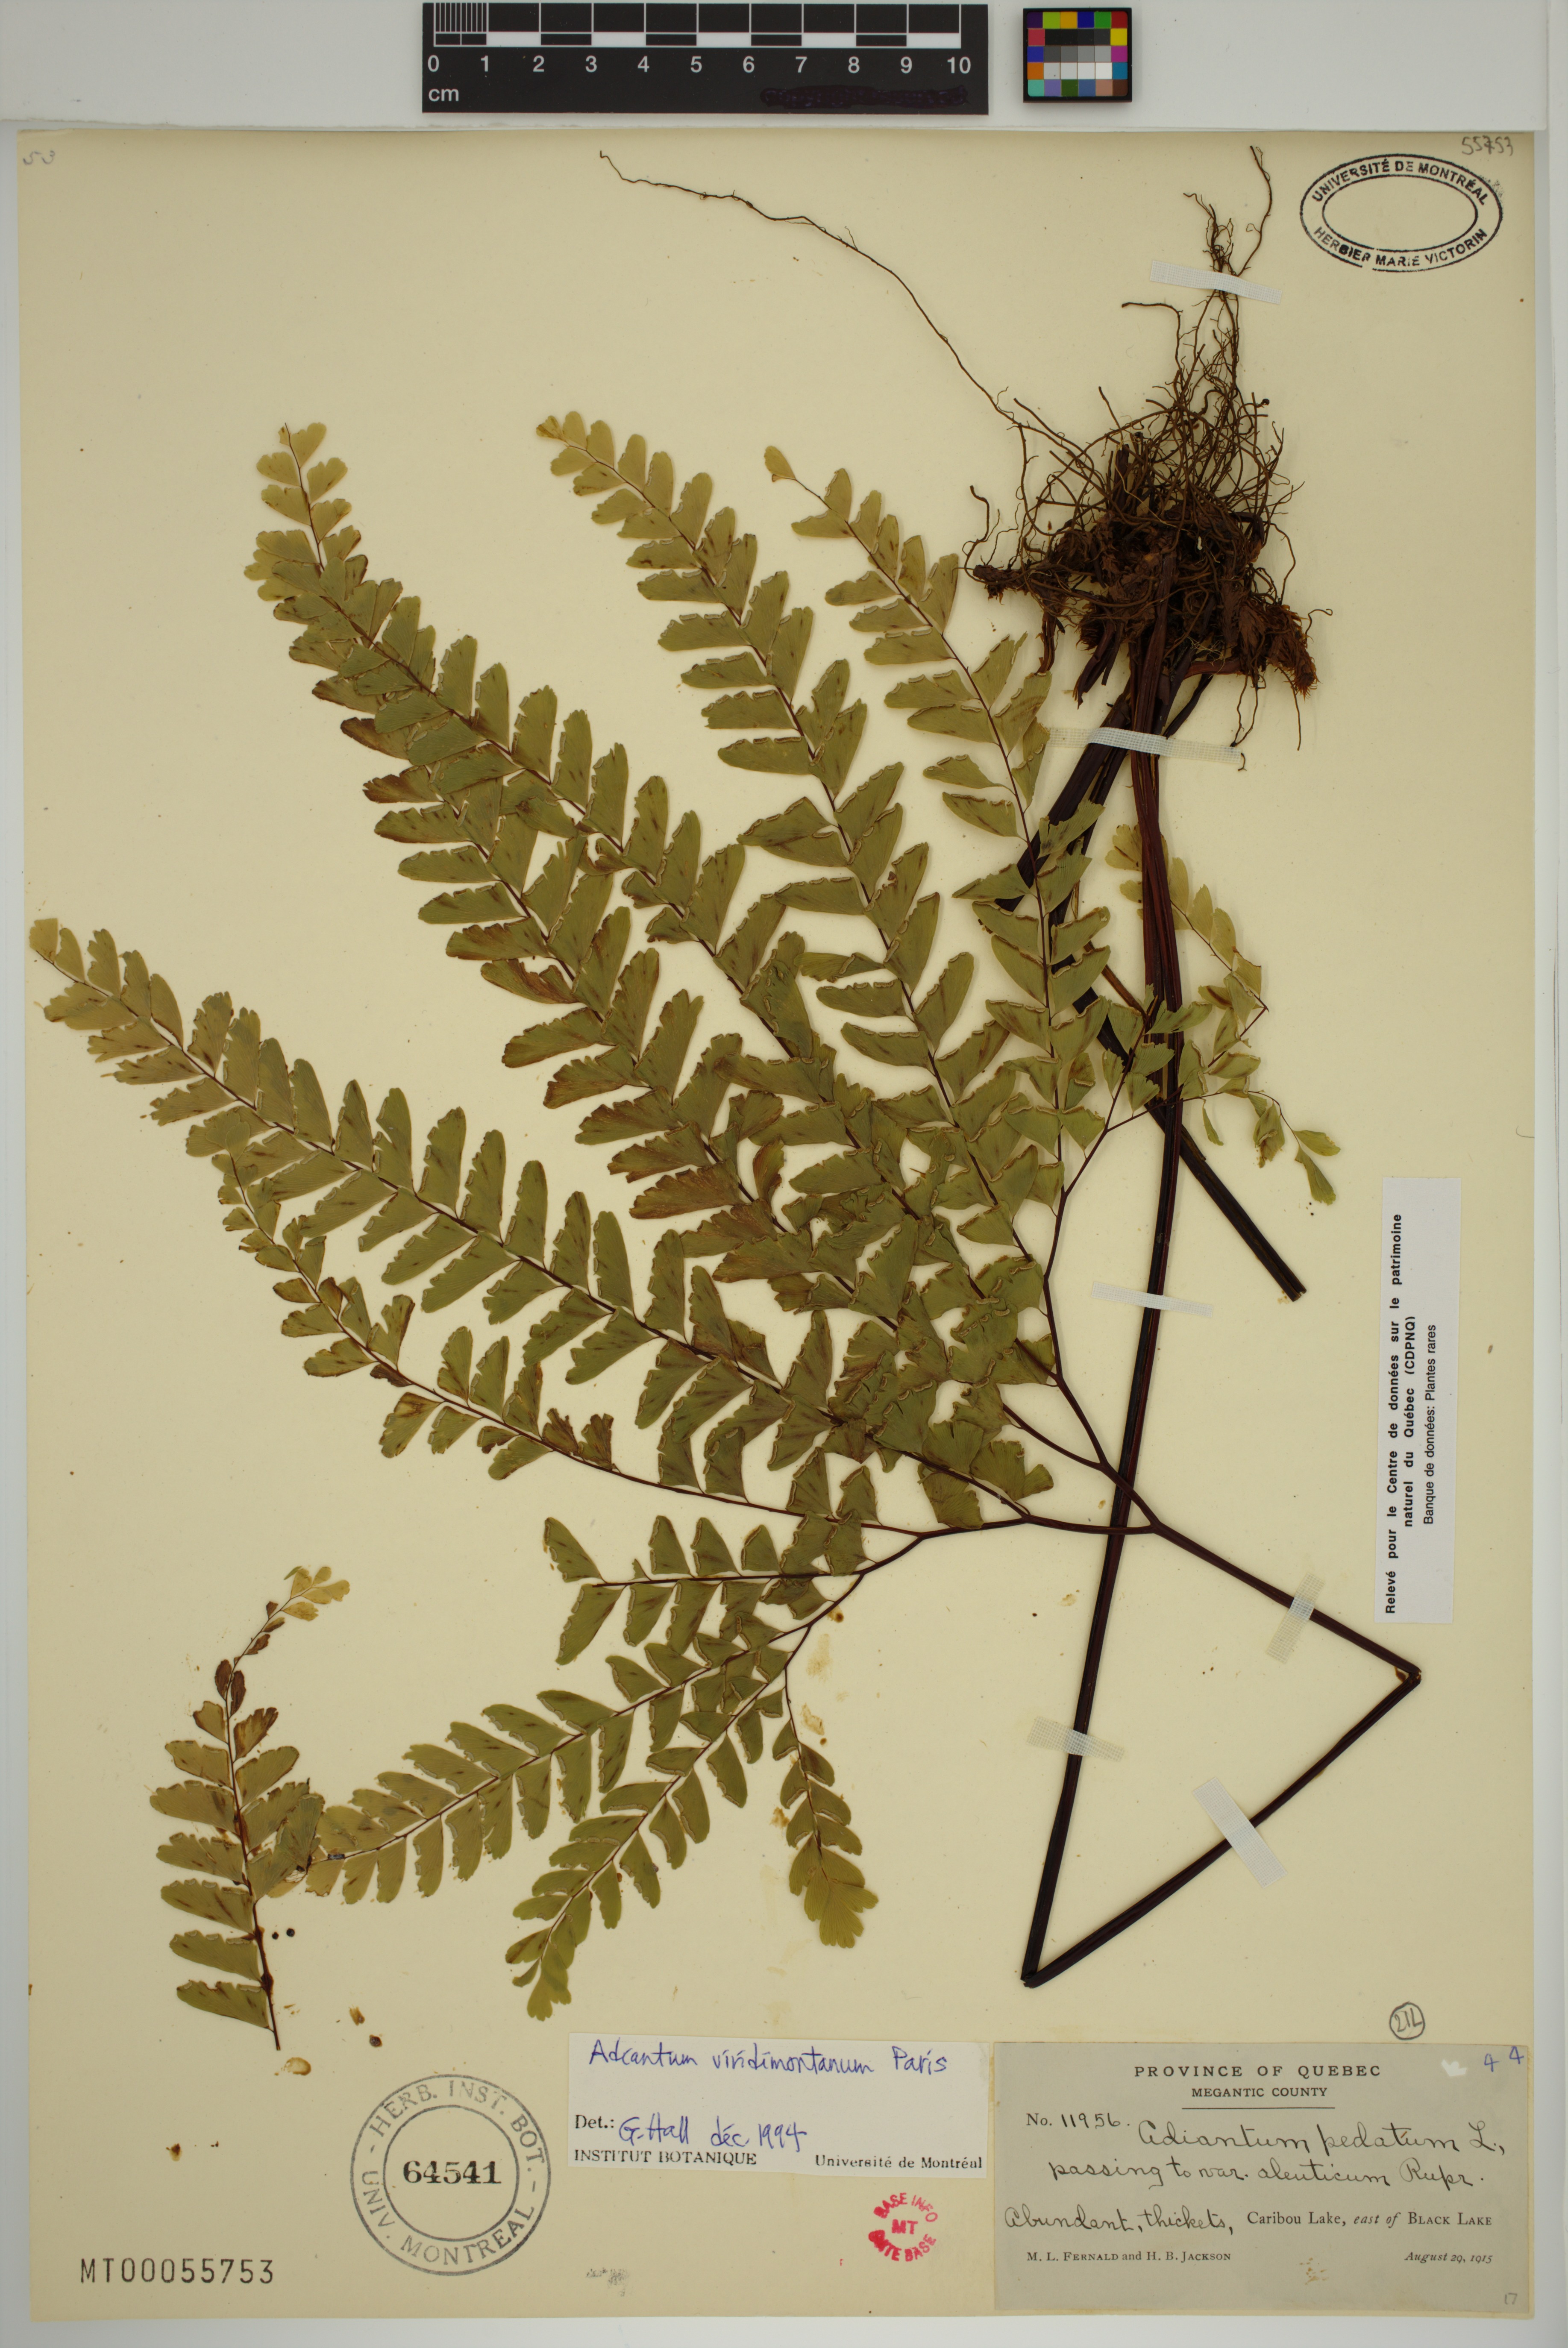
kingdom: Plantae
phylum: Tracheophyta
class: Polypodiopsida
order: Polypodiales
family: Pteridaceae
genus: Adiantum
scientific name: Adiantum viridimontanum
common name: Green mountain maidenhair
